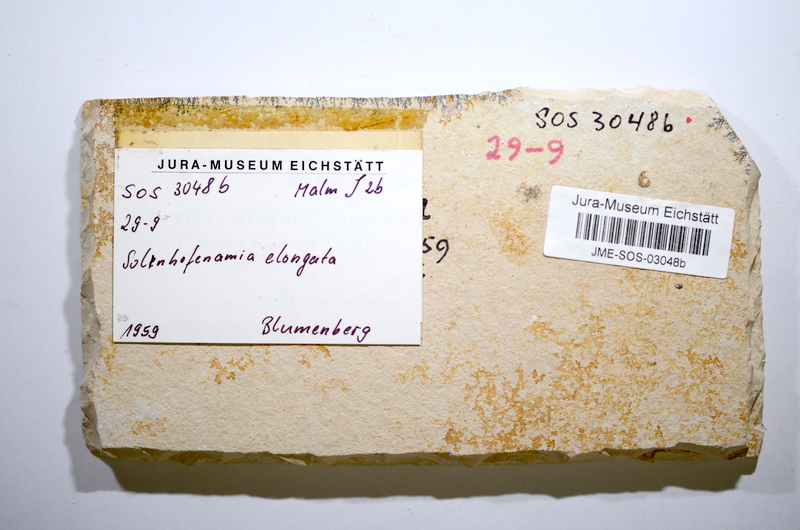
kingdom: Animalia
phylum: Chordata
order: Amiiformes
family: Amiidae
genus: Solnhofenamia
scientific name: Solnhofenamia elongata
